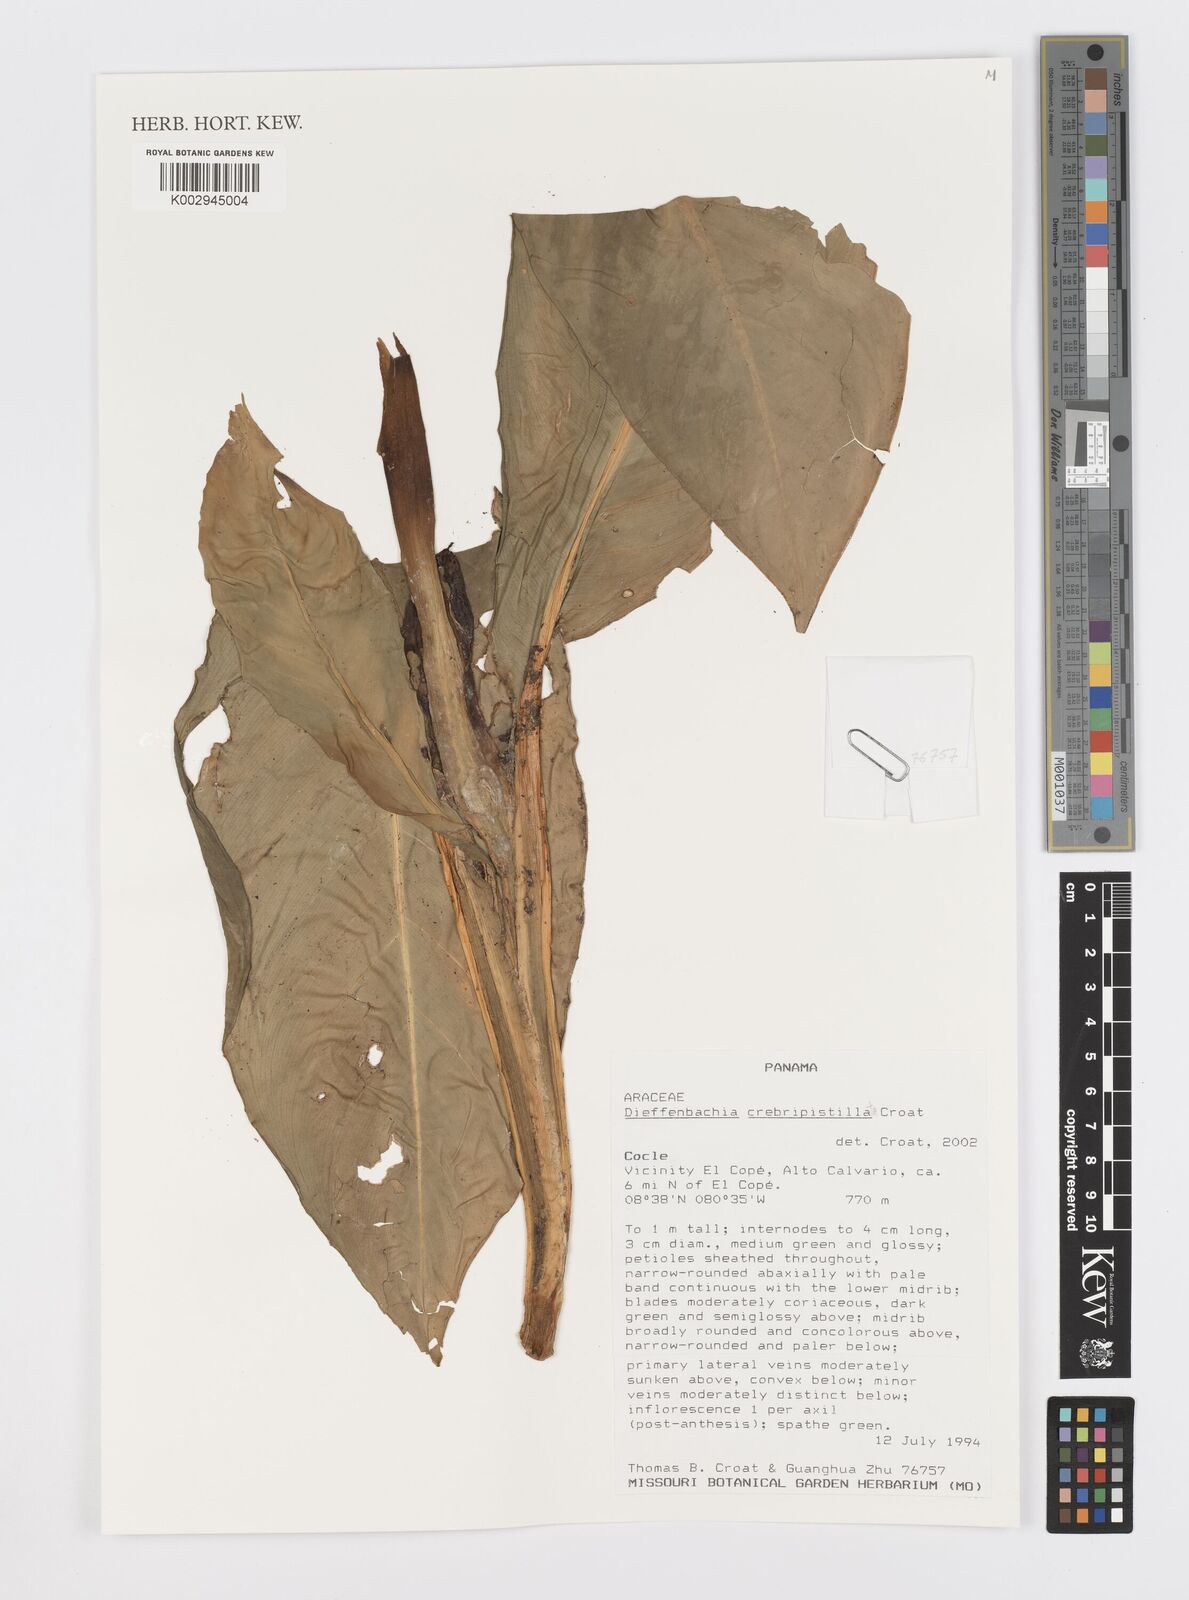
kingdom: Plantae
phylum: Tracheophyta
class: Liliopsida
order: Alismatales
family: Araceae
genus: Dieffenbachia
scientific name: Dieffenbachia crebripistillata
